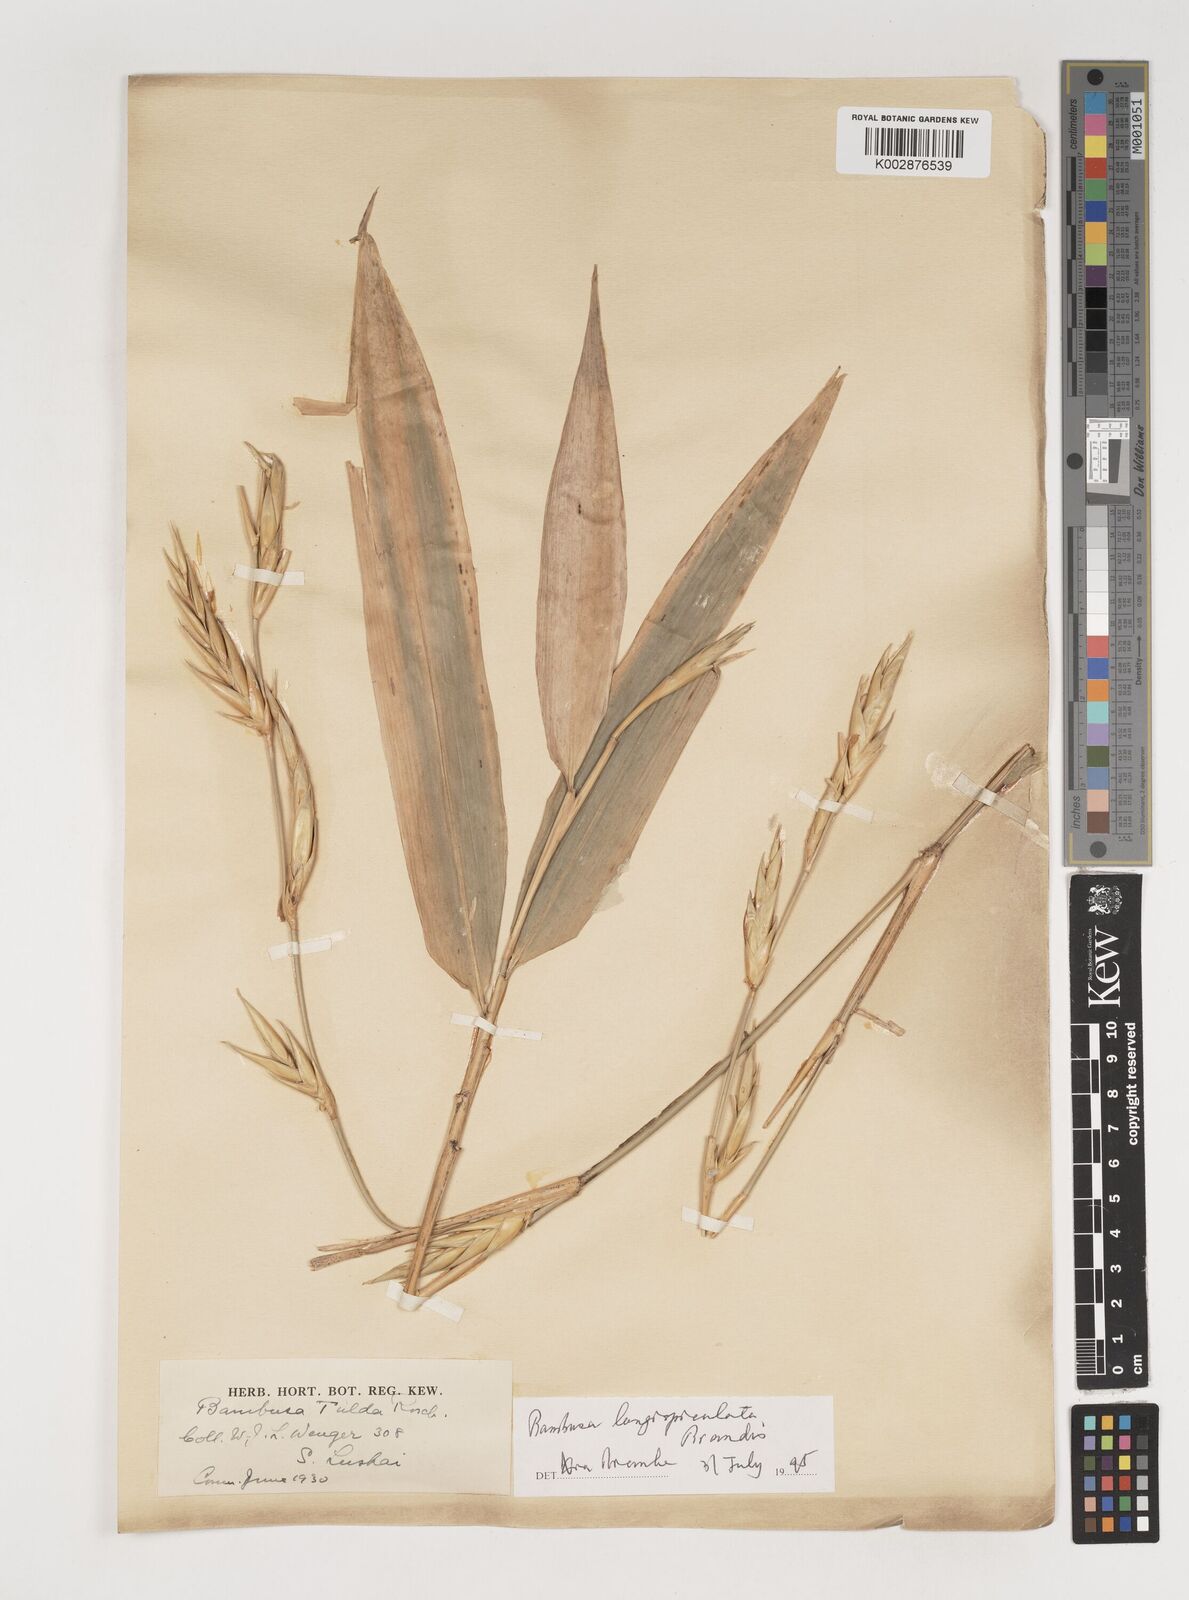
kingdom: Plantae
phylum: Tracheophyta
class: Liliopsida
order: Poales
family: Poaceae
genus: Bambusa
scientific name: Bambusa longispiculata
